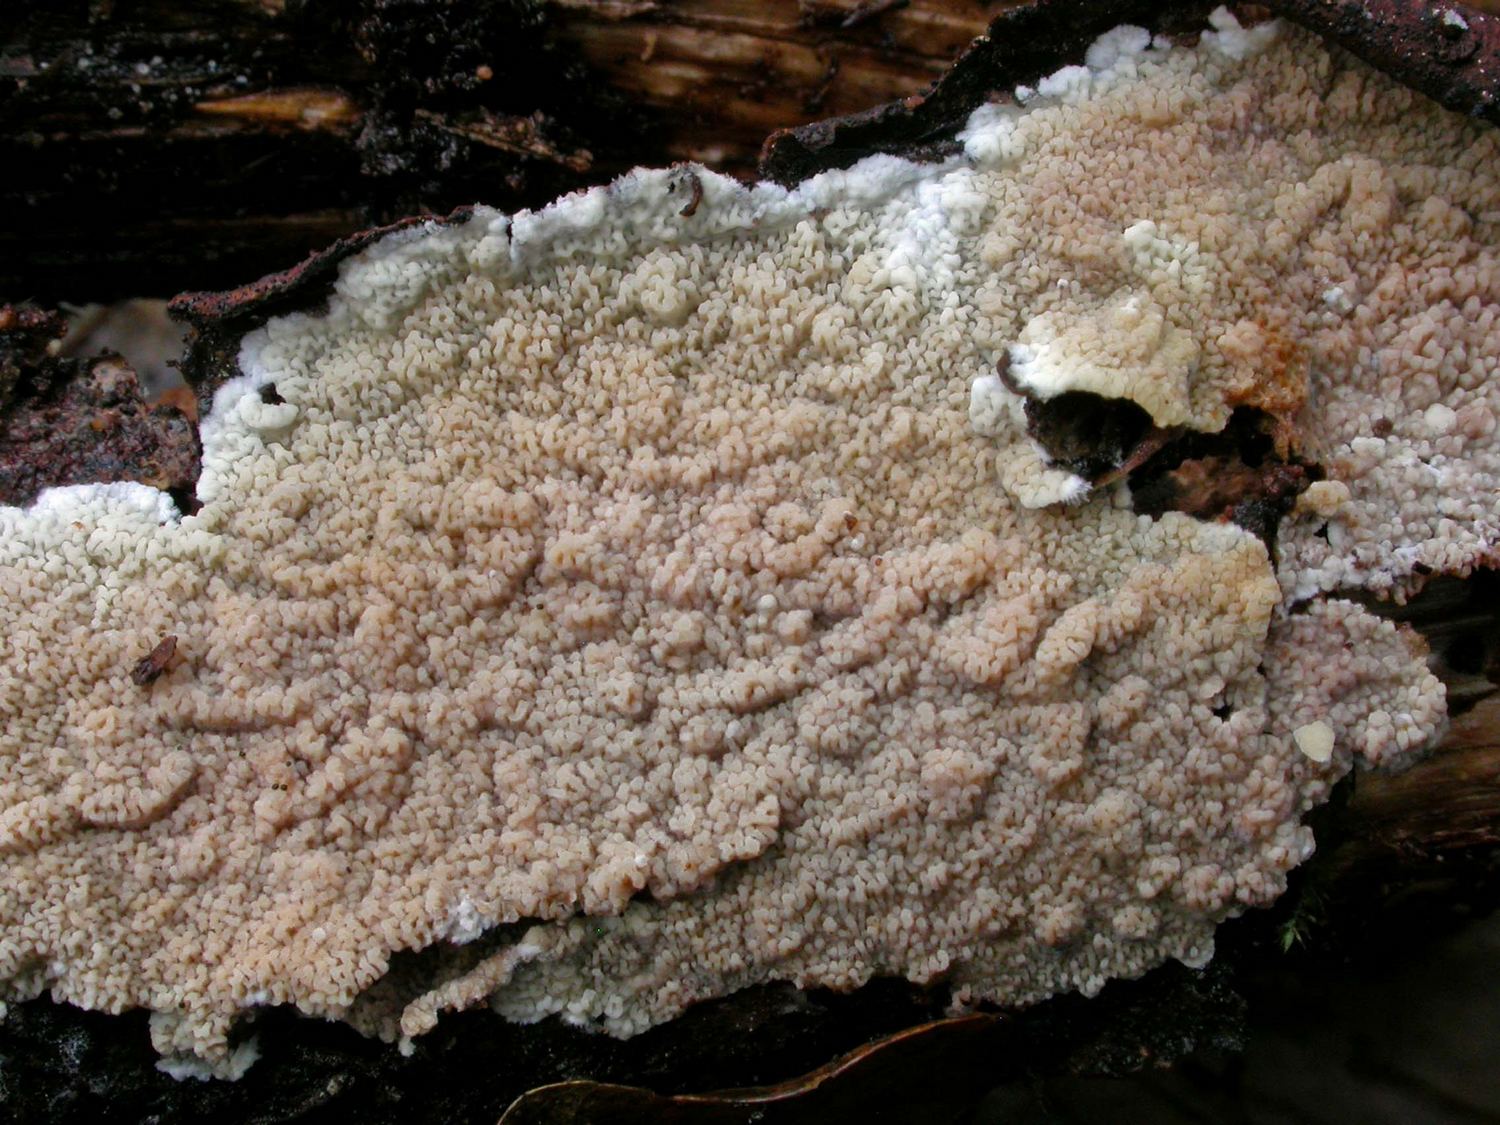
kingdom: Fungi
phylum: Basidiomycota
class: Agaricomycetes
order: Polyporales
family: Meruliaceae
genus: Phlebia
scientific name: Phlebia rufa
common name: ege-åresvamp
